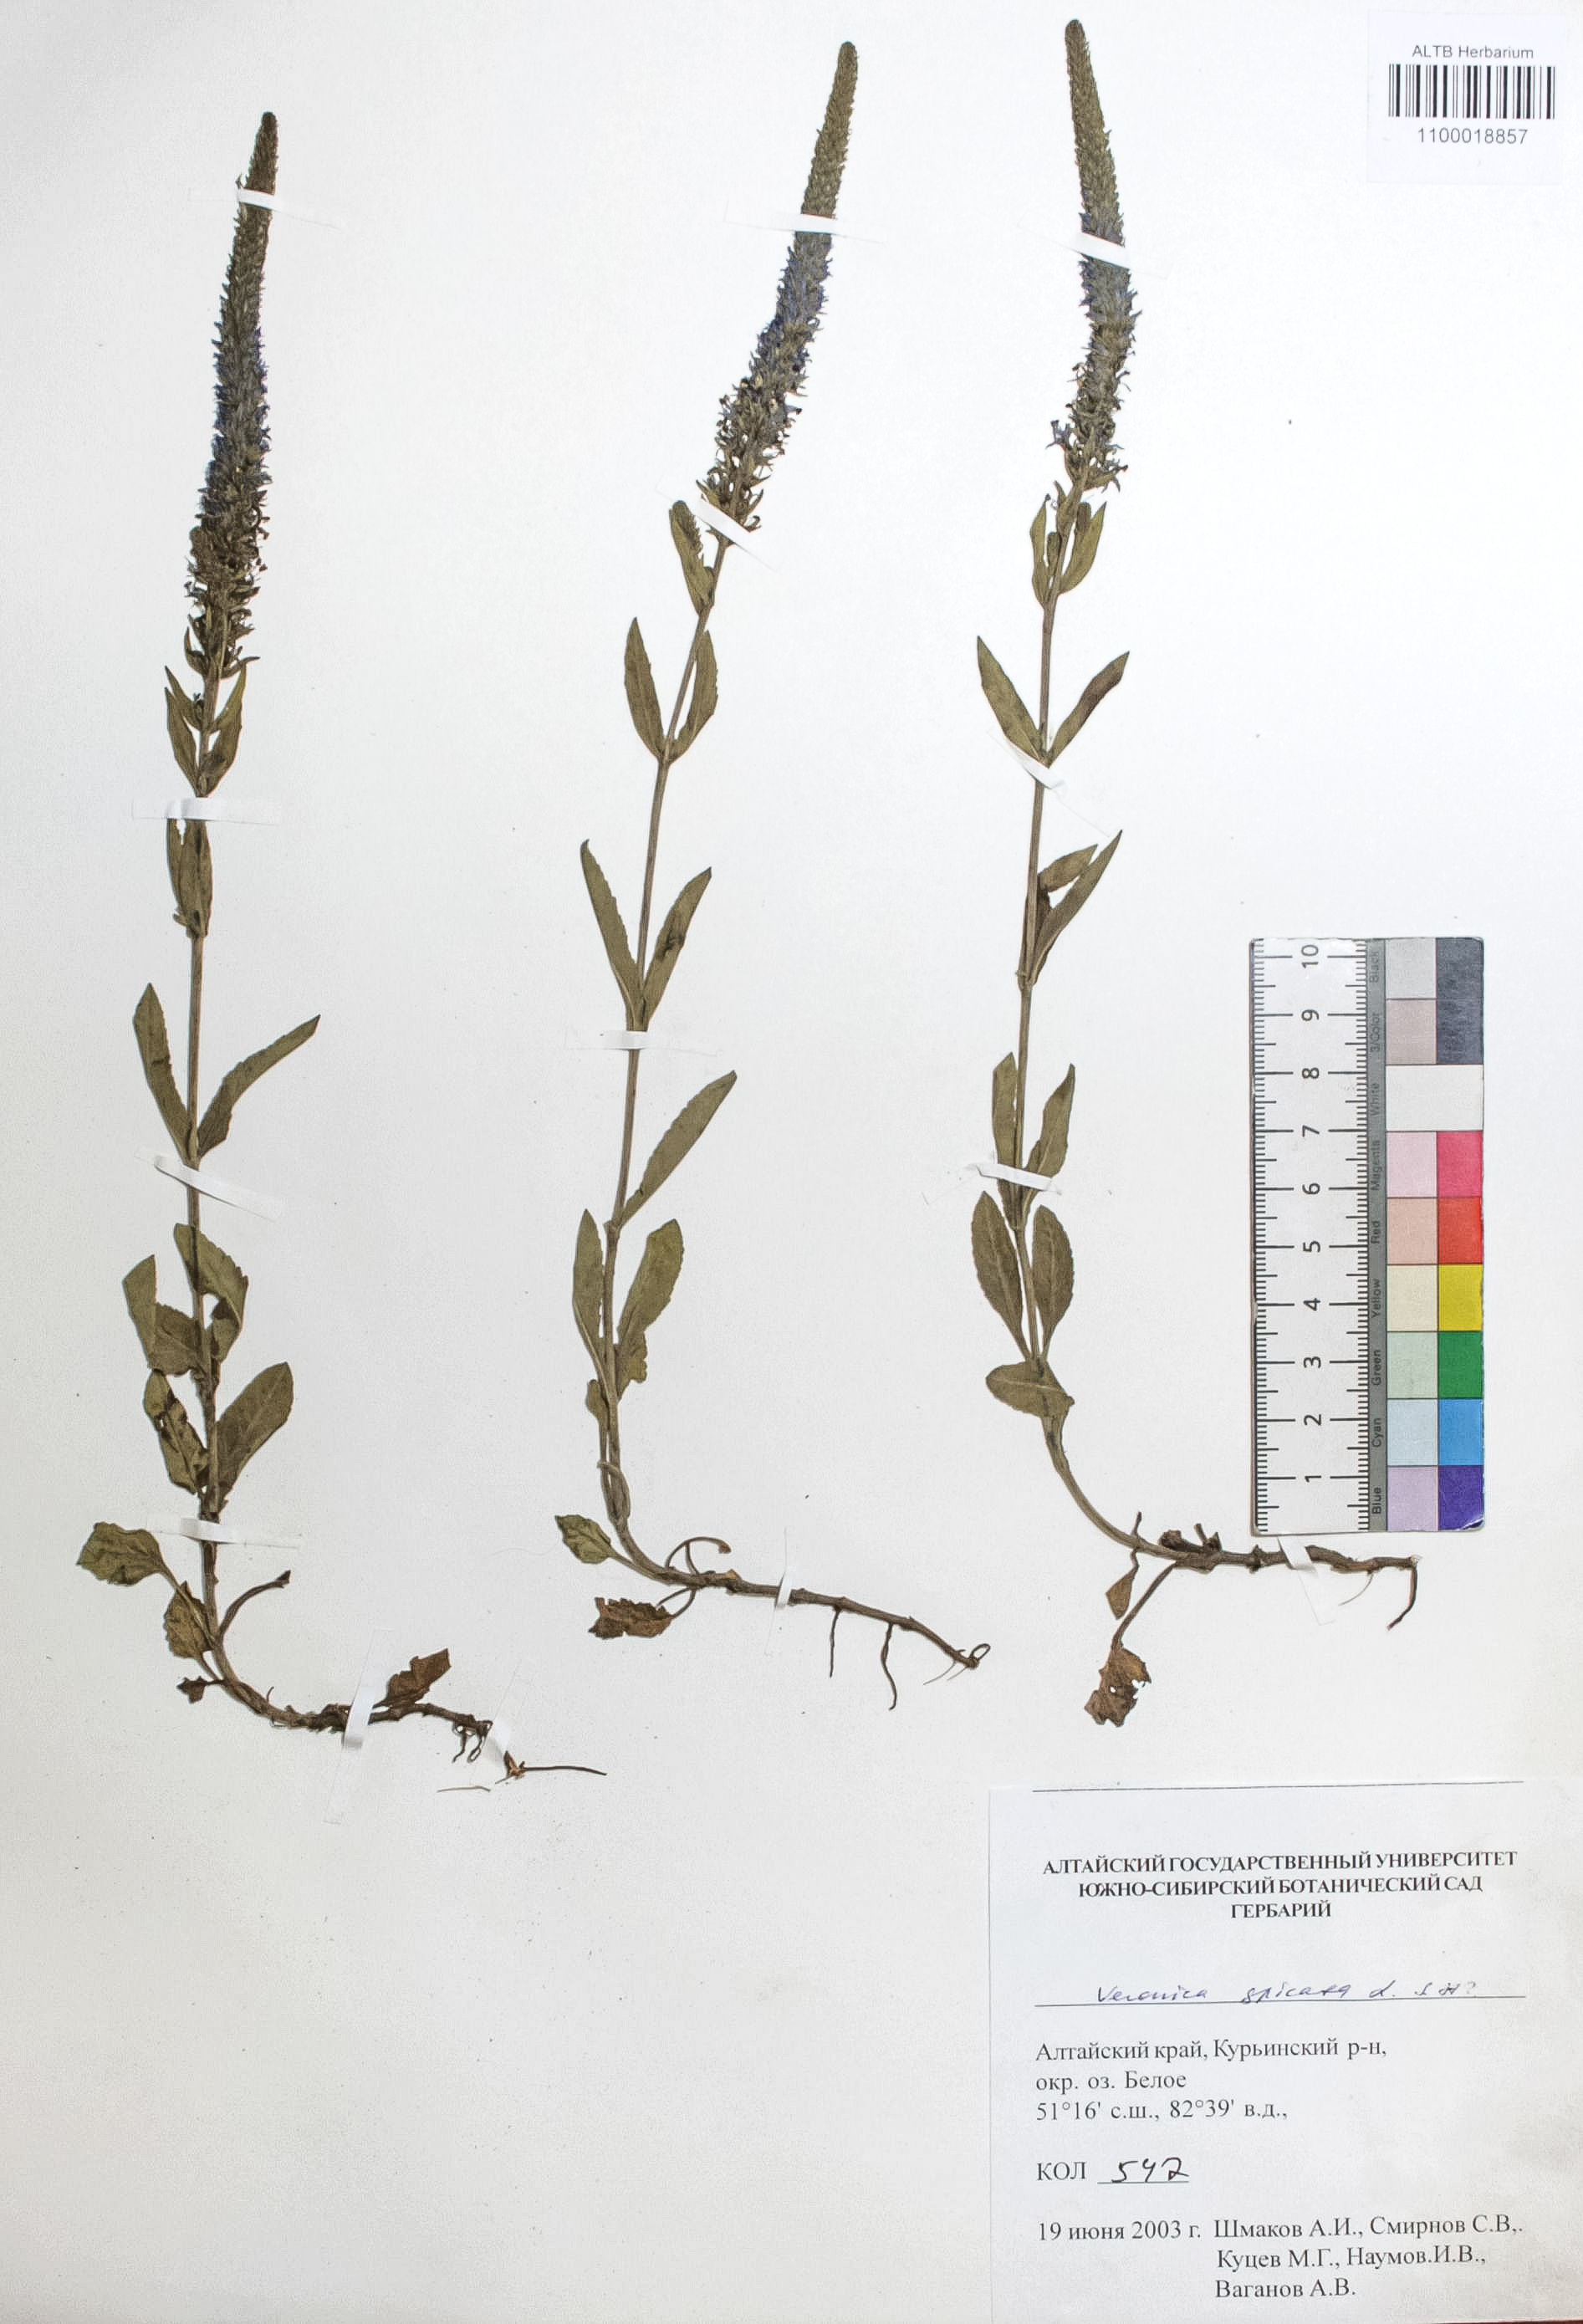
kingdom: Plantae
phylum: Tracheophyta
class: Magnoliopsida
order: Lamiales
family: Plantaginaceae
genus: Veronica
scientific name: Veronica spicata
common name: Spiked speedwell
